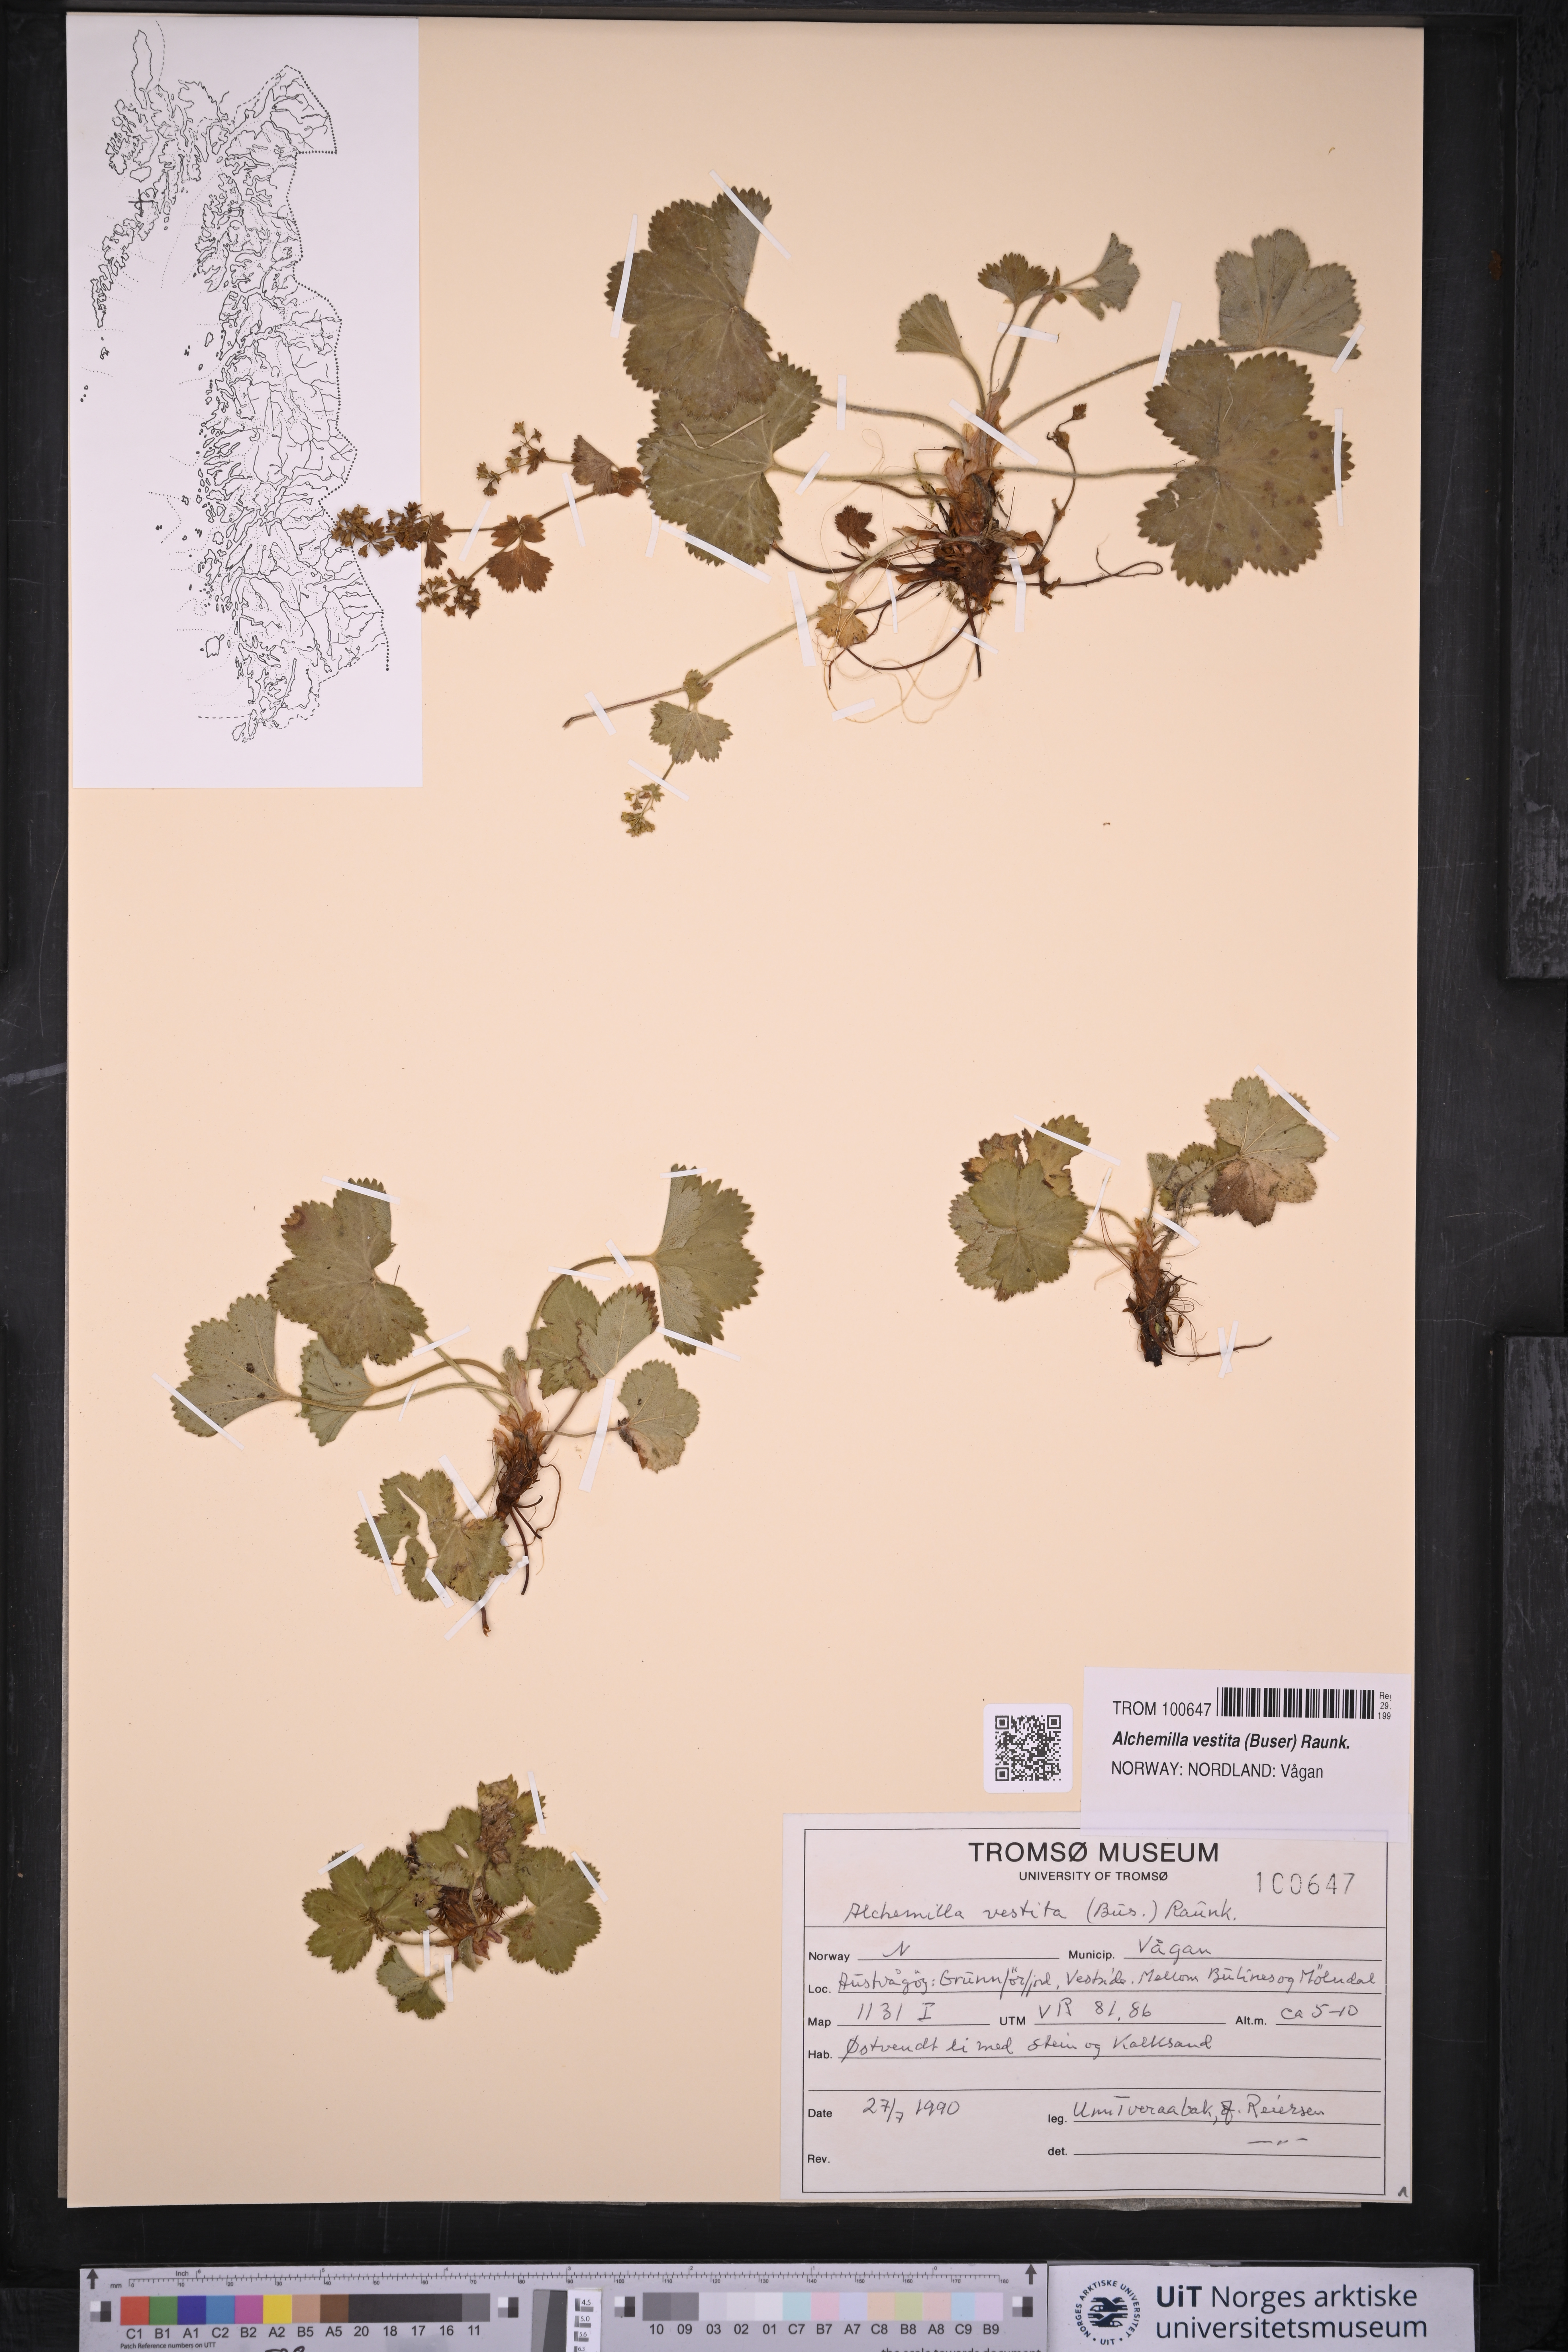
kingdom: Plantae
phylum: Tracheophyta
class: Magnoliopsida
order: Rosales
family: Rosaceae
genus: Alchemilla
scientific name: Alchemilla filicaulis
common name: Hairy lady's-mantle
